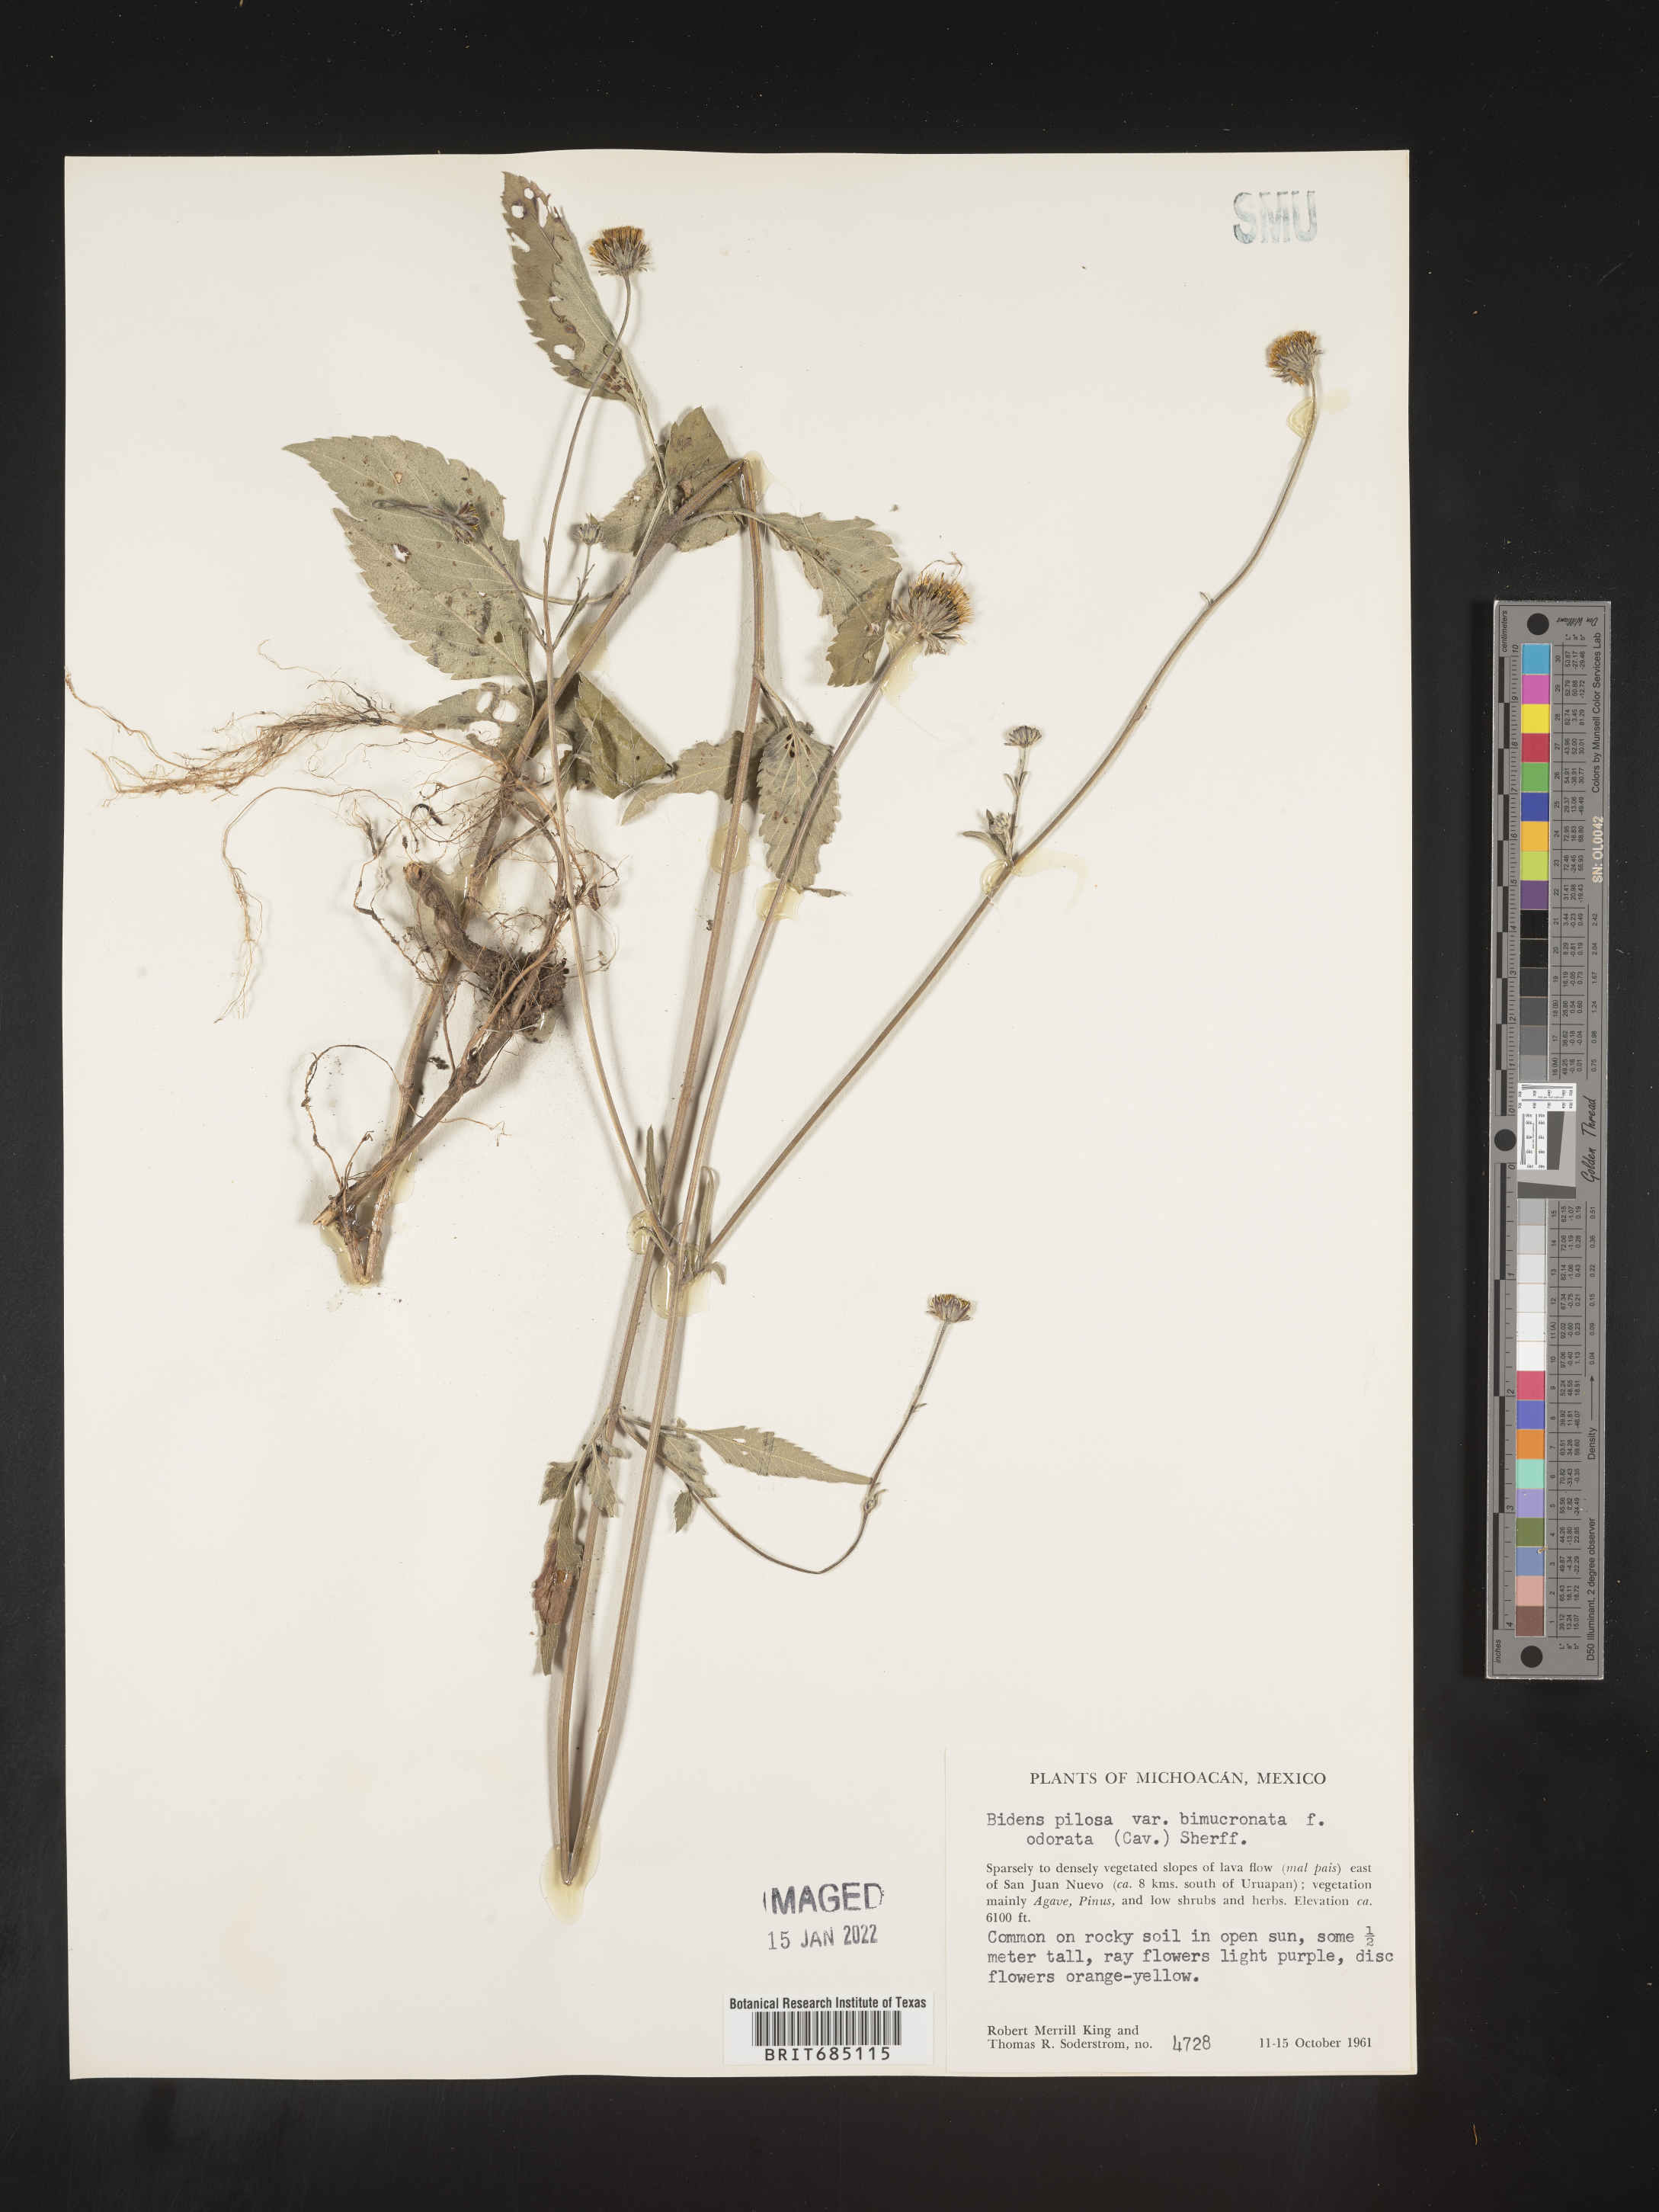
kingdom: Plantae
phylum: Tracheophyta
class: Magnoliopsida
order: Asterales
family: Asteraceae
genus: Bidens
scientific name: Bidens
